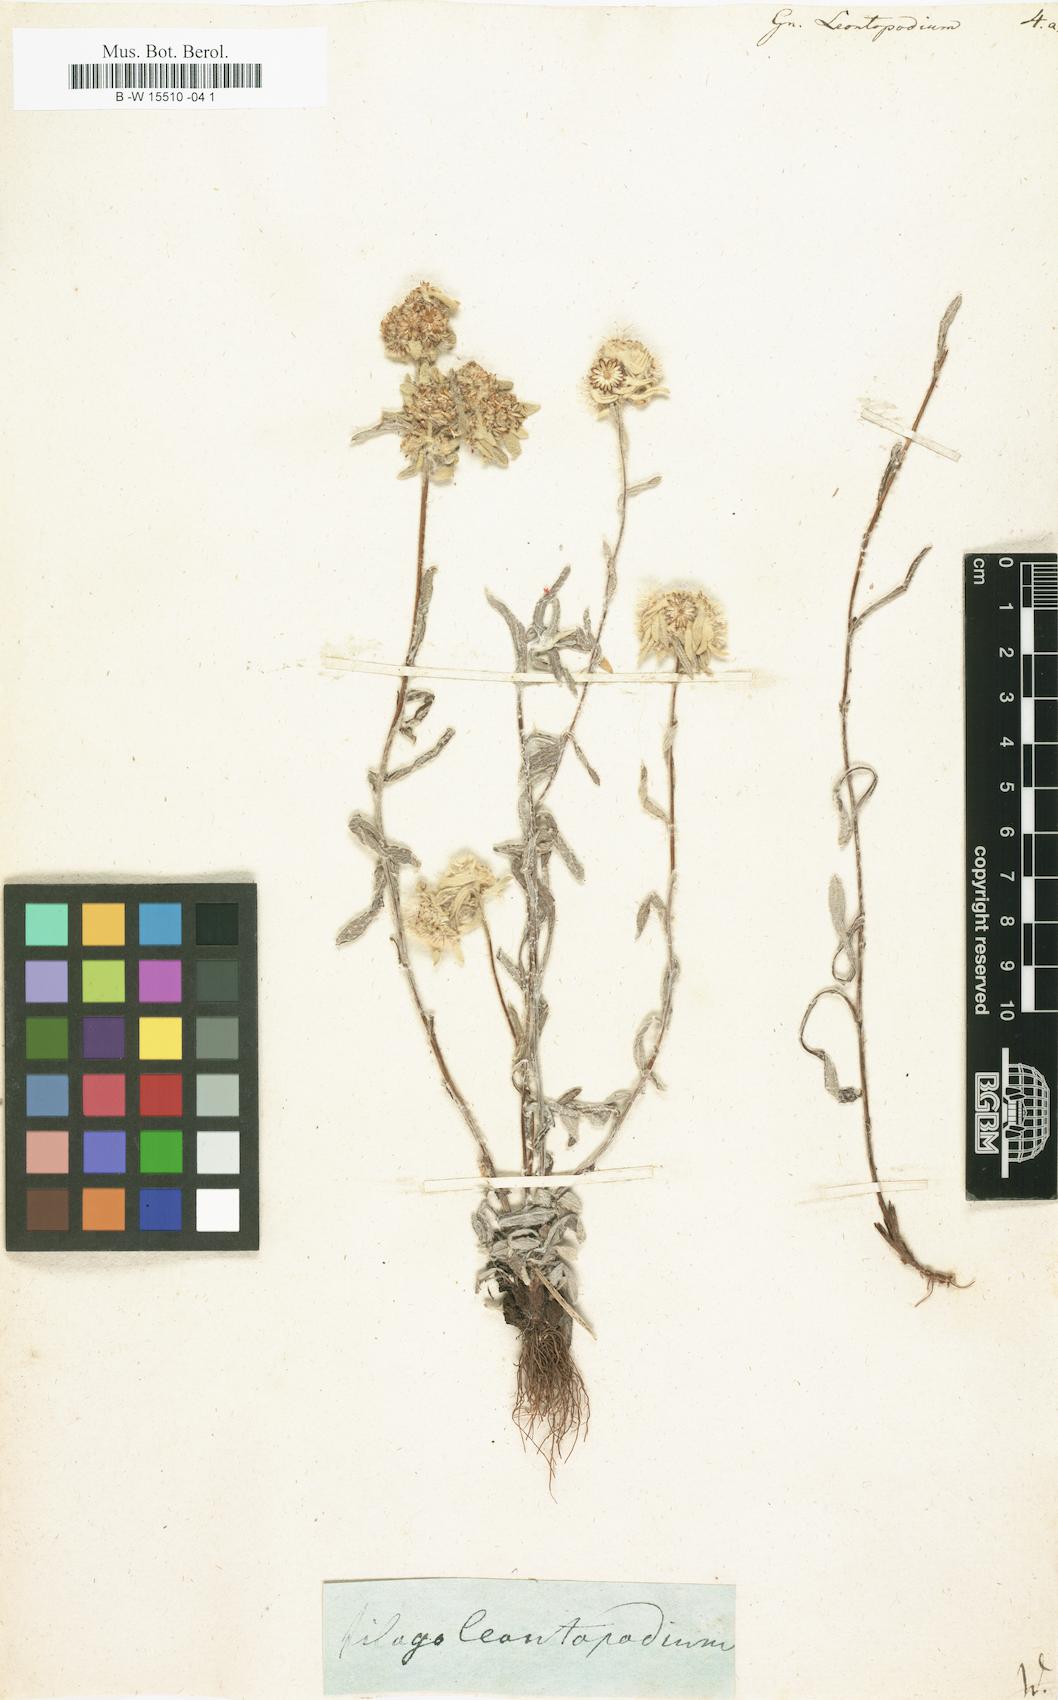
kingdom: Plantae
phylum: Tracheophyta
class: Magnoliopsida
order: Asterales
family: Asteraceae
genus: Gnaphalium
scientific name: Gnaphalium leontopodium
